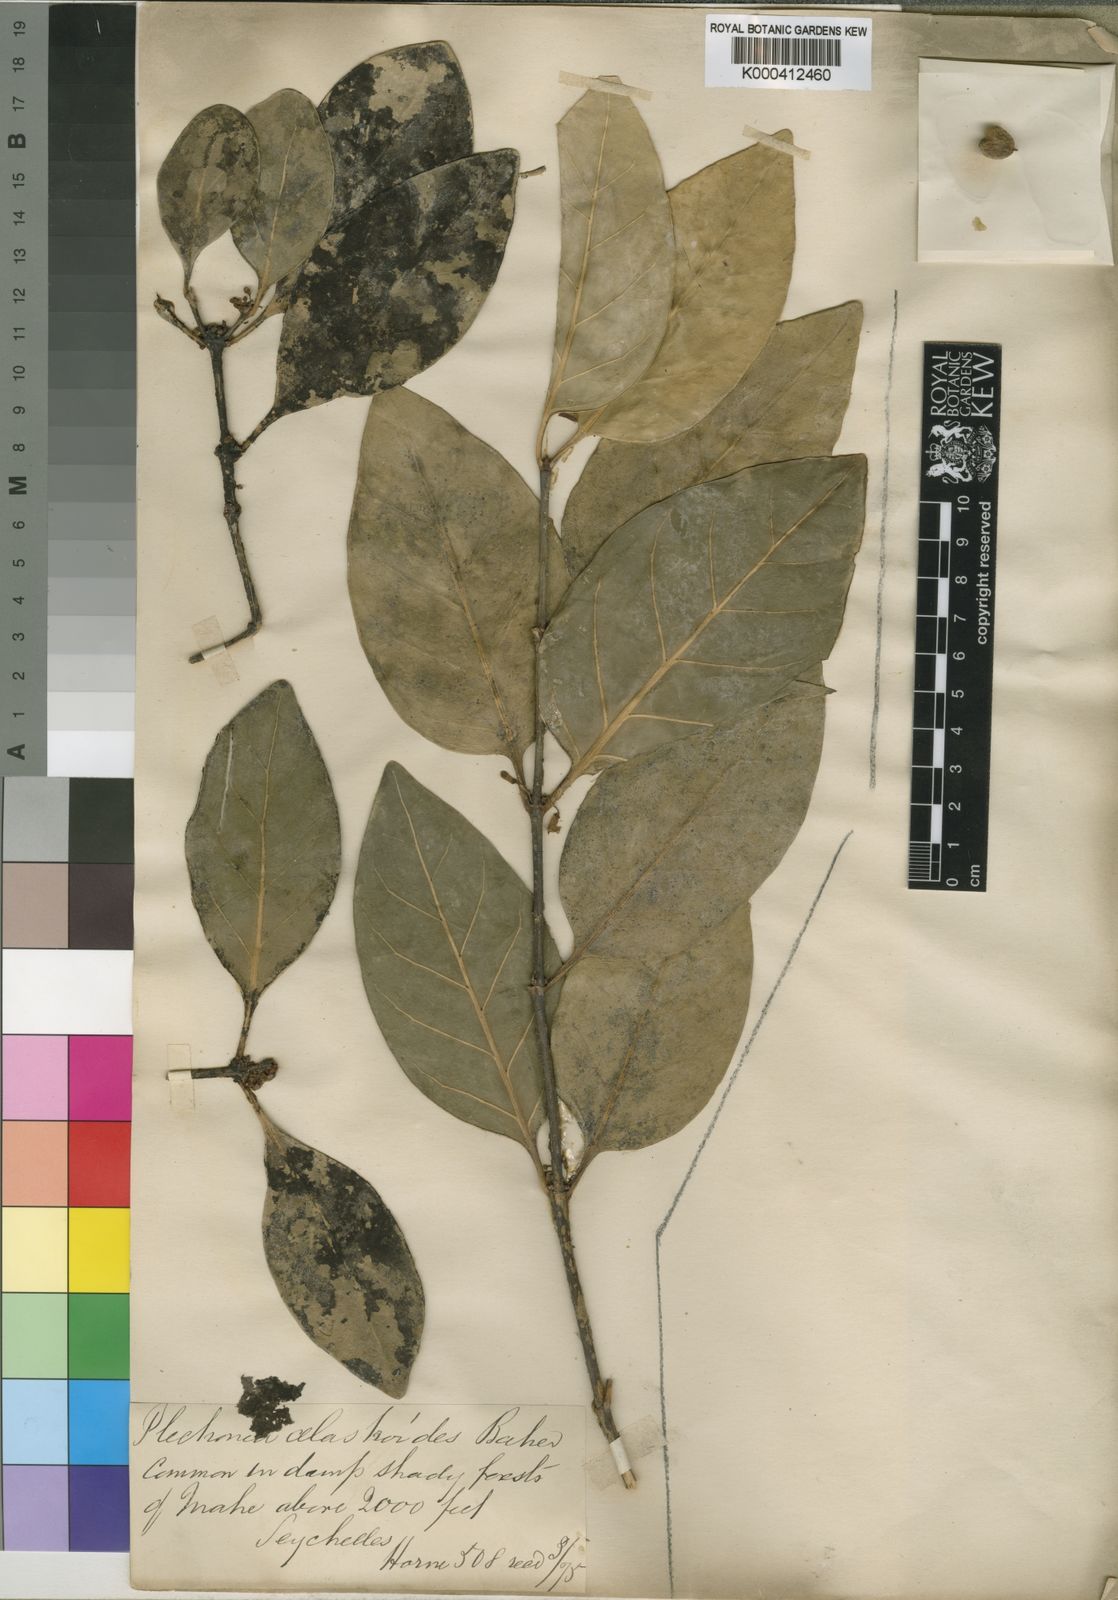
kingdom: Plantae
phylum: Tracheophyta
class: Magnoliopsida
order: Gentianales
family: Rubiaceae
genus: Peponidium
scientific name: Peponidium celastroides
